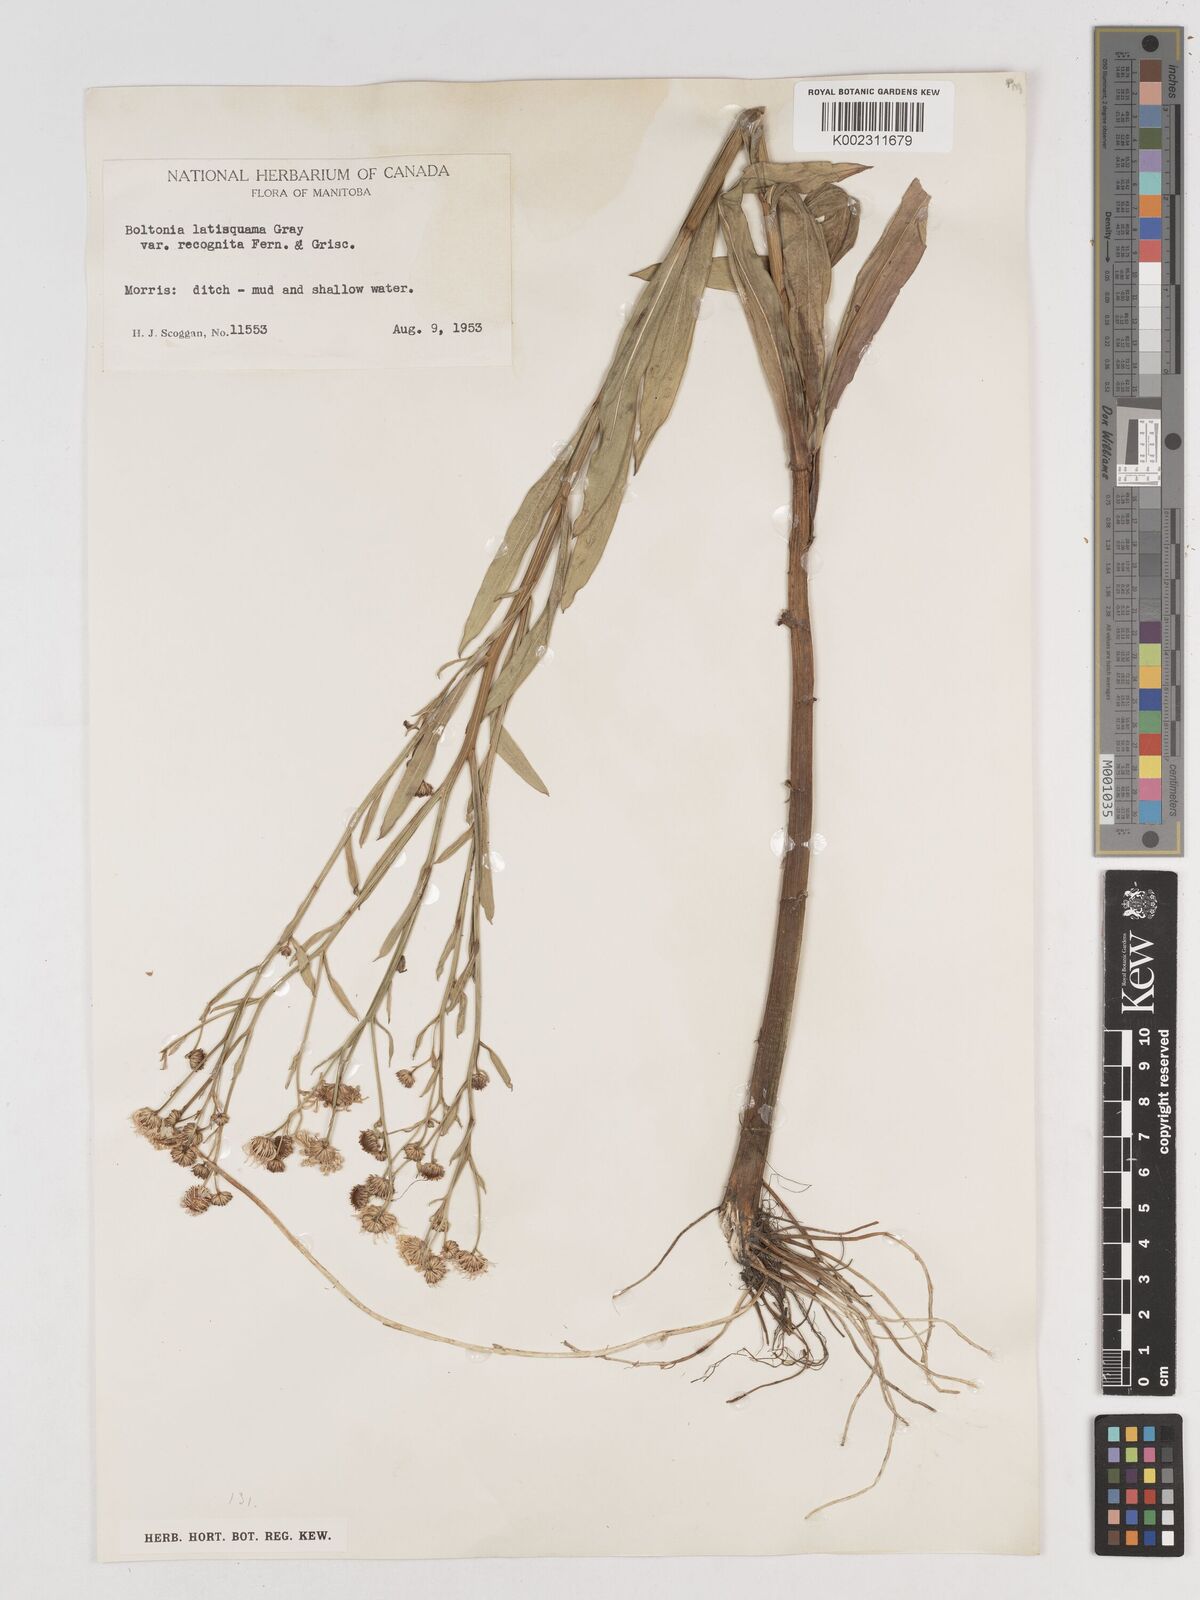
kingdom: Plantae
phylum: Tracheophyta
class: Magnoliopsida
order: Asterales
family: Asteraceae
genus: Boltonia
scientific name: Boltonia asteroides
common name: False chamomile
